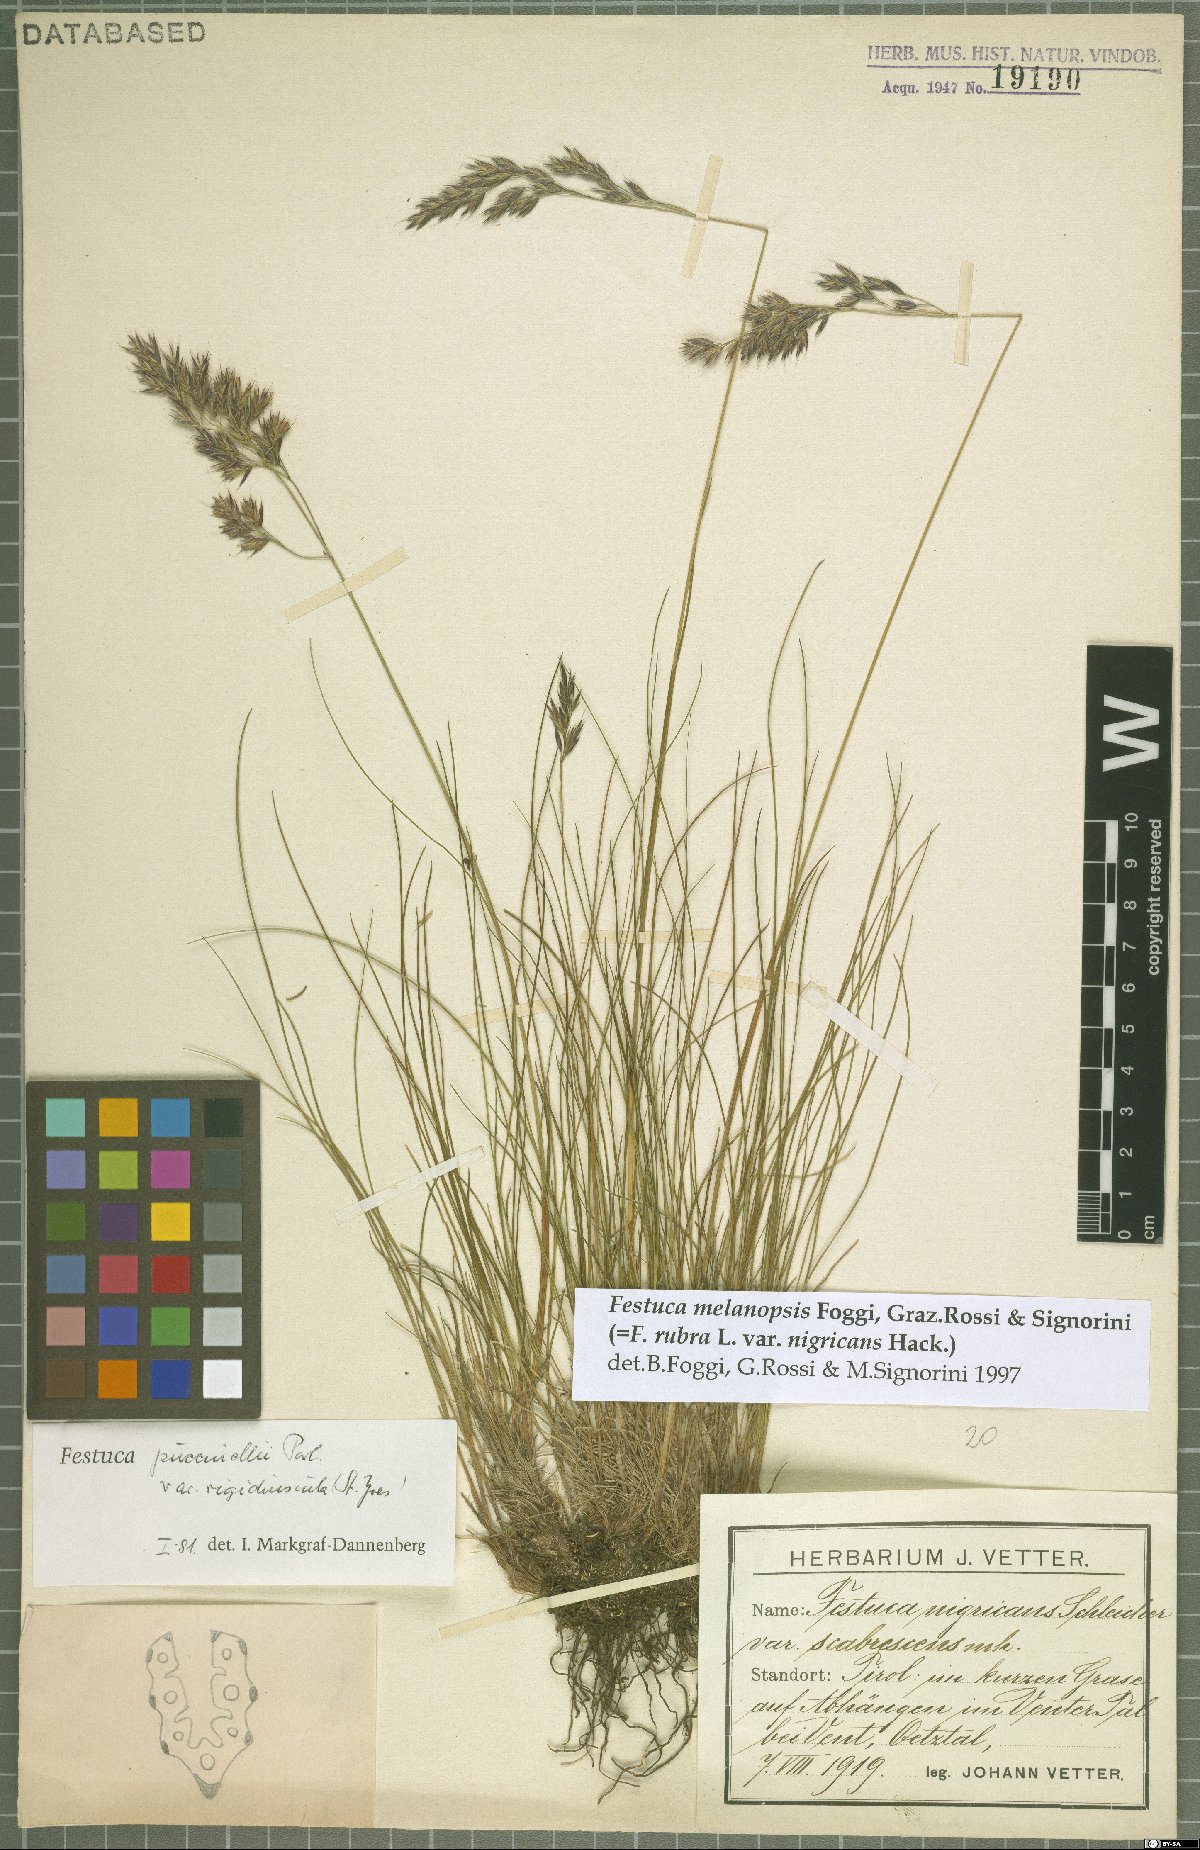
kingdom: Plantae
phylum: Tracheophyta
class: Liliopsida
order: Poales
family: Poaceae
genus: Festuca
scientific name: Festuca nigrescens
